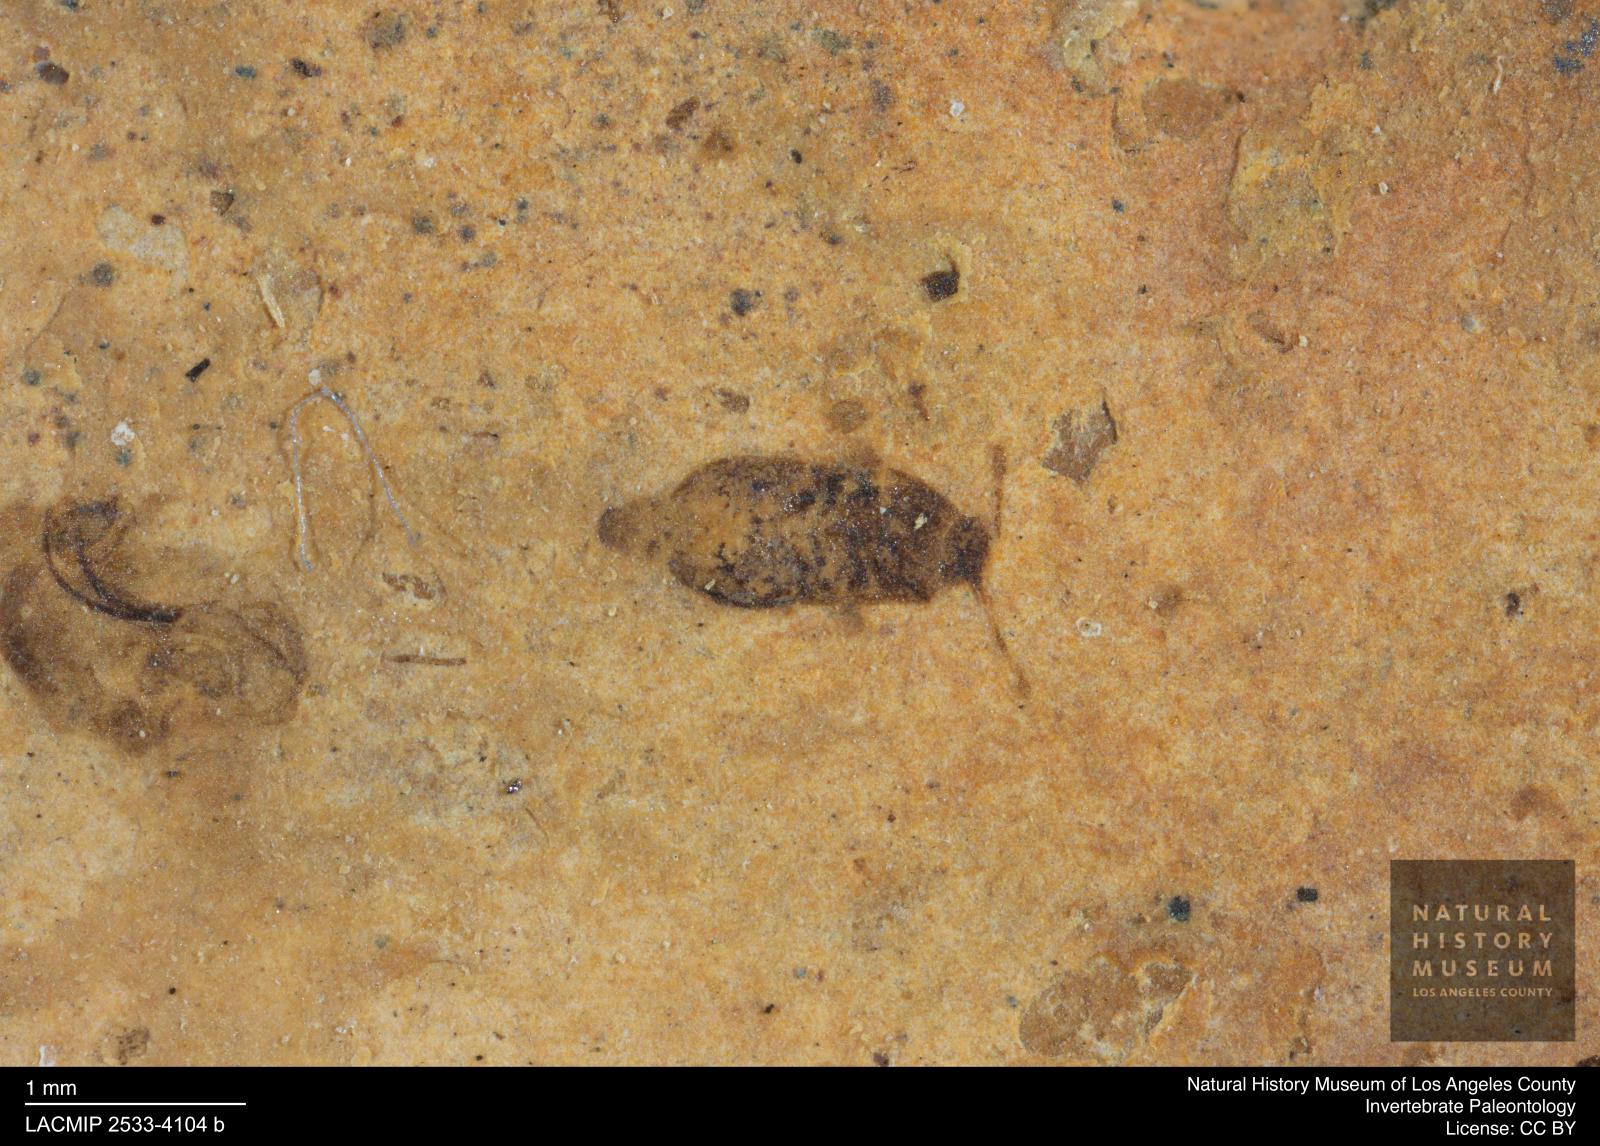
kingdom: Animalia
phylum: Arthropoda
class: Insecta
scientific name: Insecta
